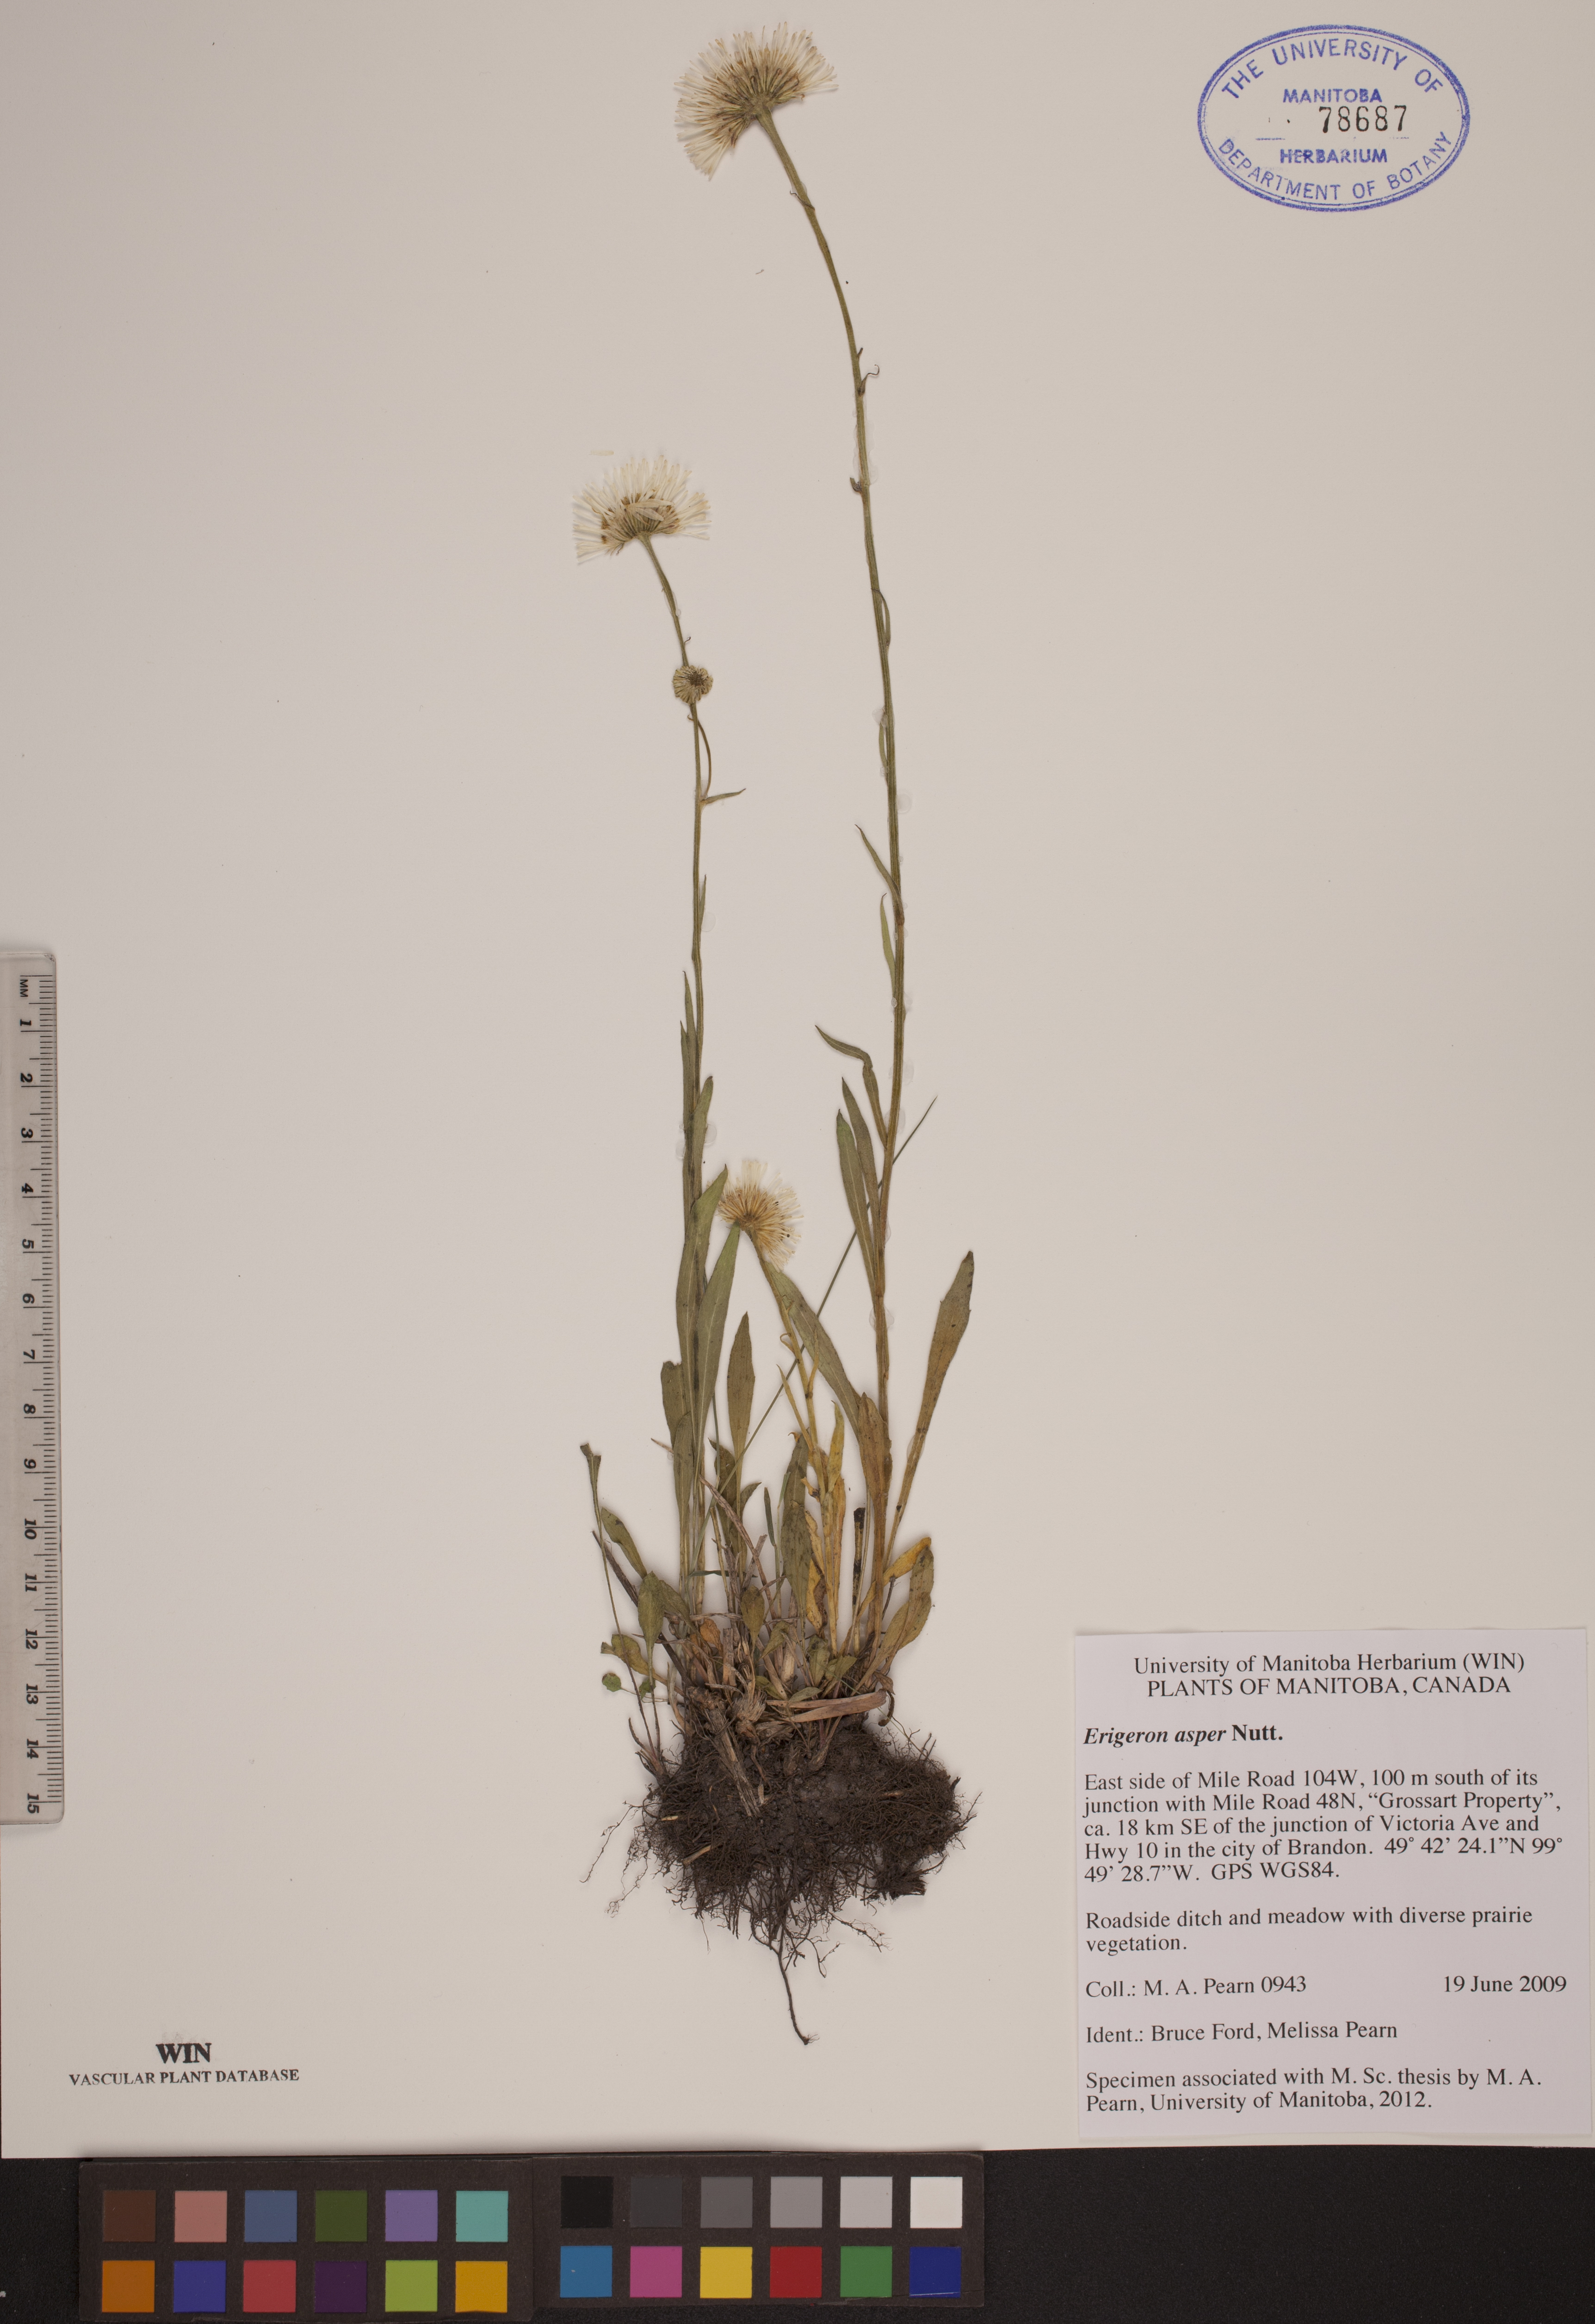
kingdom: Plantae
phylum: Tracheophyta
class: Magnoliopsida
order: Asterales
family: Asteraceae
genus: Erigeron
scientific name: Erigeron glabellus
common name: Smooth fleabane
